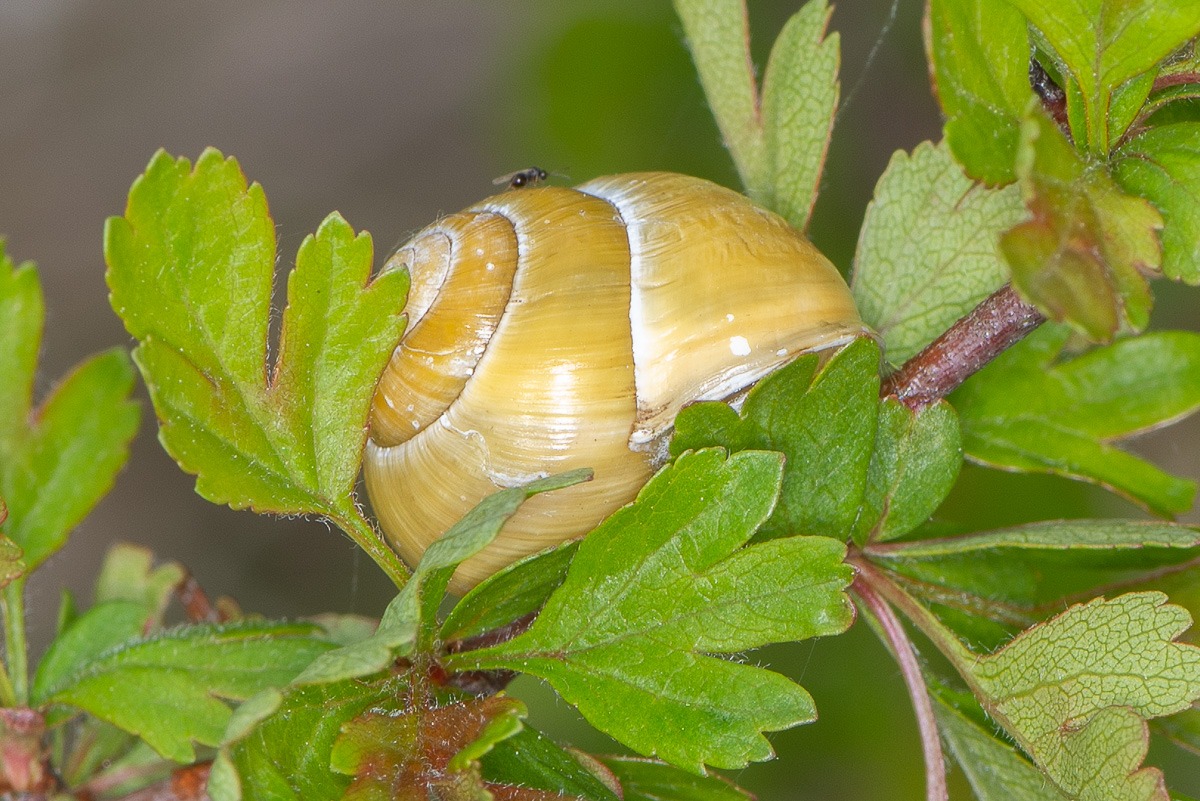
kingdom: Animalia
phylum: Mollusca
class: Gastropoda
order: Stylommatophora
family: Helicidae
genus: Cepaea
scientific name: Cepaea hortensis
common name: Havesnegl
